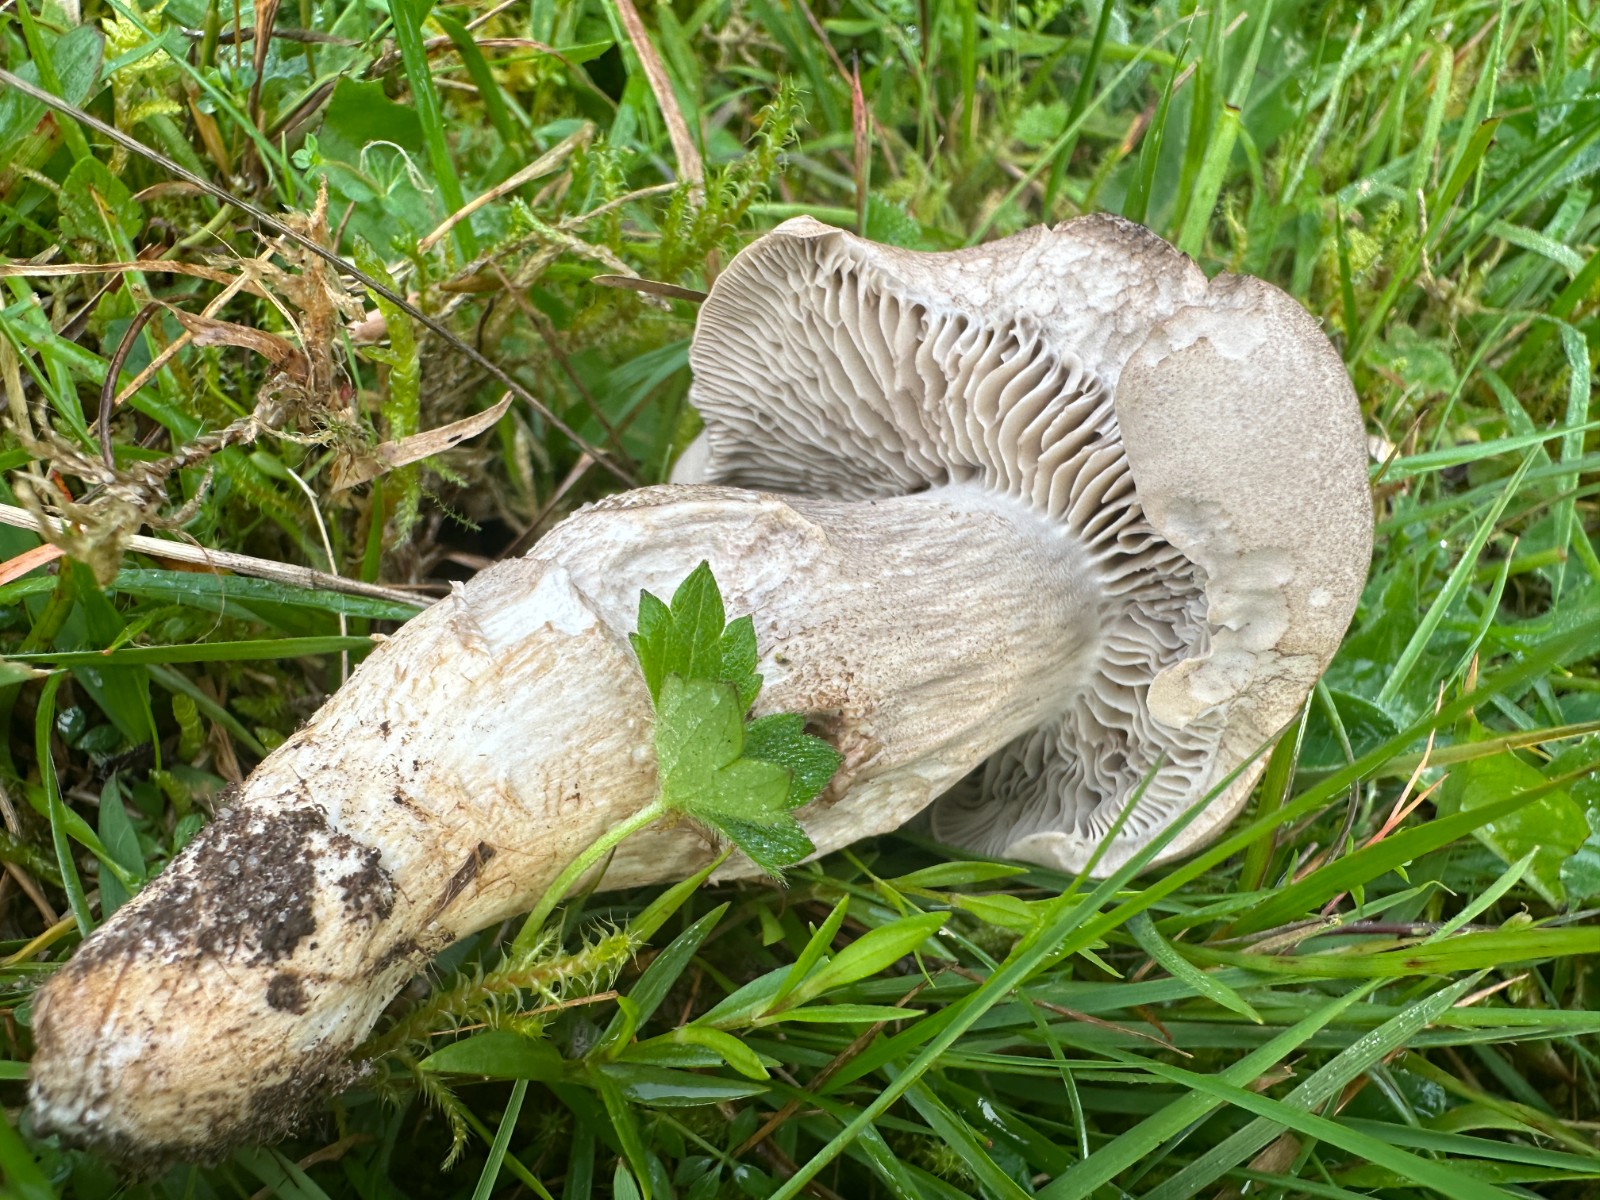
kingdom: Fungi
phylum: Basidiomycota
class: Agaricomycetes
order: Agaricales
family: Tricholomataceae
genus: Pseudotricholoma
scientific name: Pseudotricholoma metapodium
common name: rødmende alfehat
